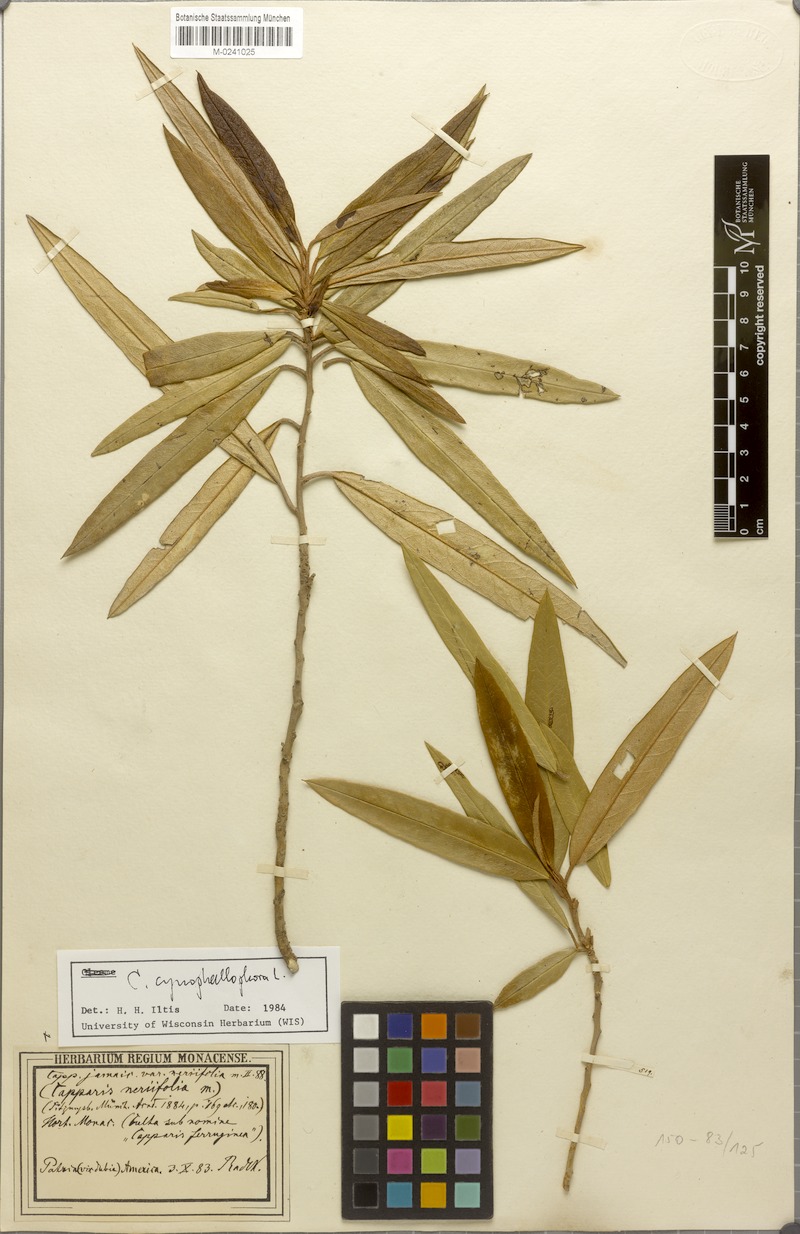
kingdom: Plantae
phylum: Tracheophyta
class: Magnoliopsida
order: Brassicales
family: Capparaceae
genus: Quadrella
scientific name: Quadrella cynophallophora
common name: Black willow
